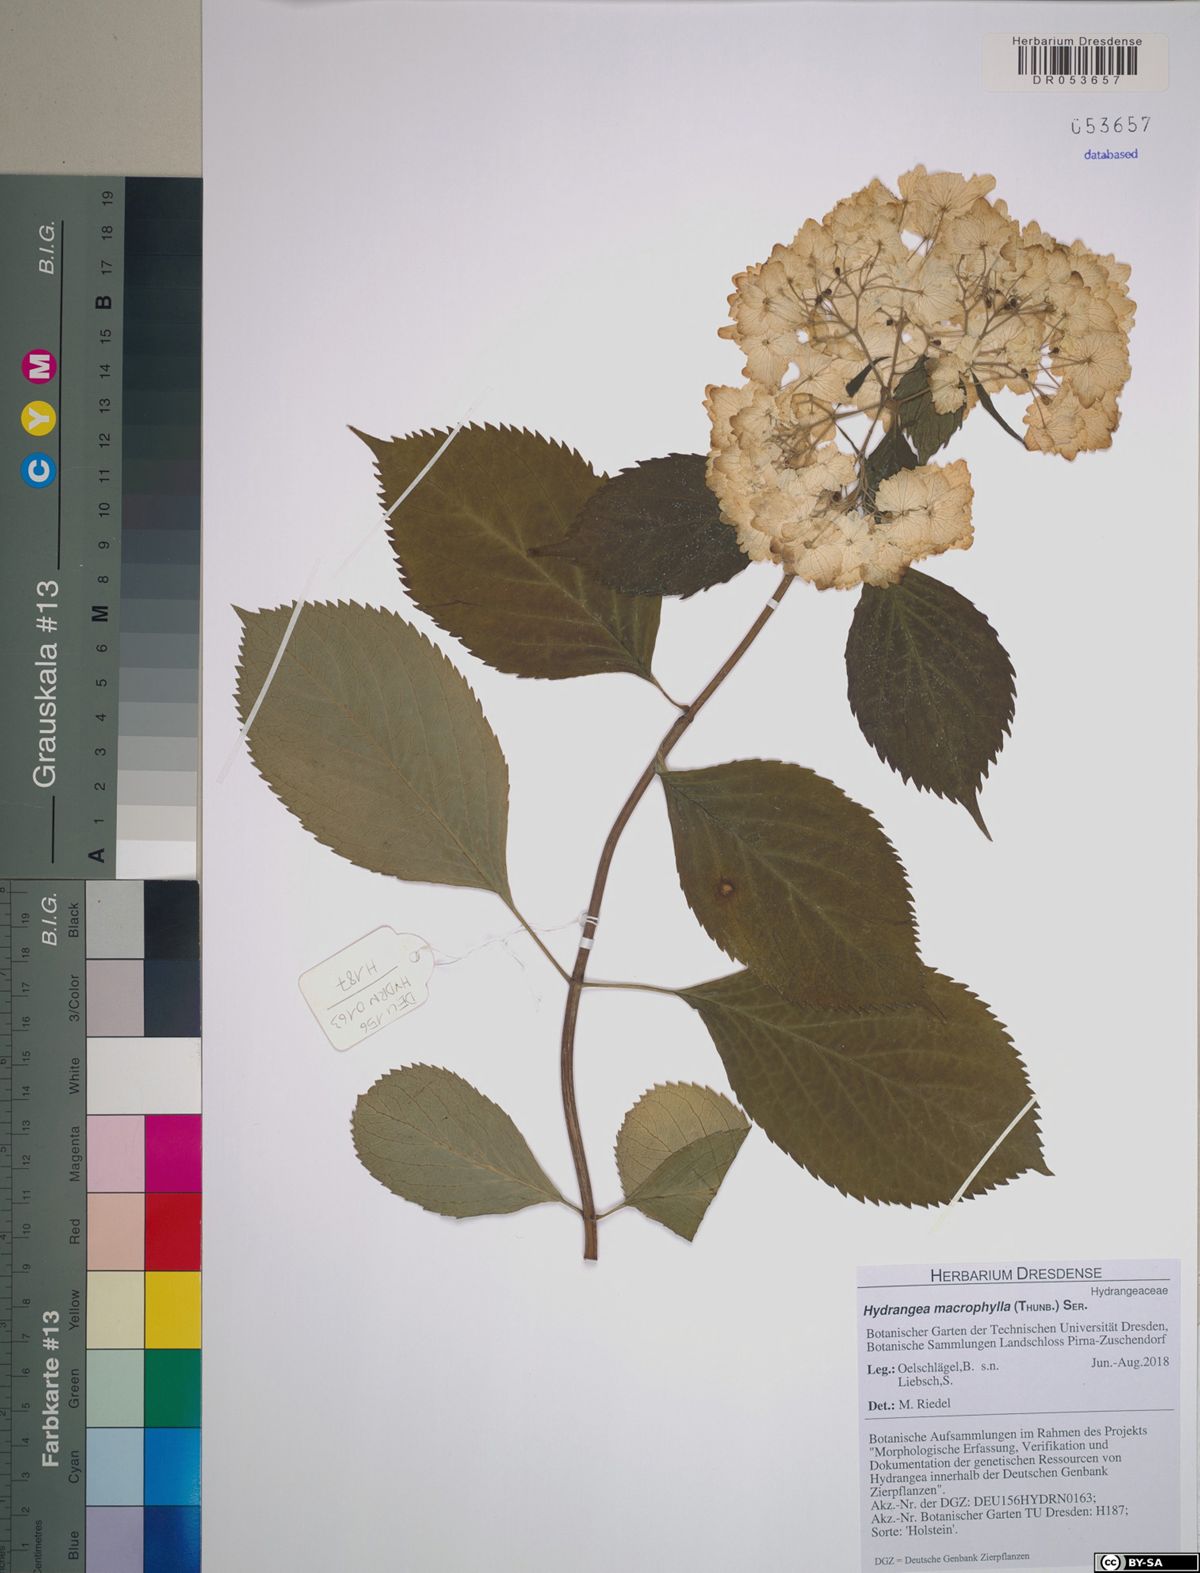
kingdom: Plantae
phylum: Tracheophyta
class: Magnoliopsida
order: Cornales
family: Hydrangeaceae
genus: Hydrangea
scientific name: Hydrangea macrophylla
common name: Hydrangea
